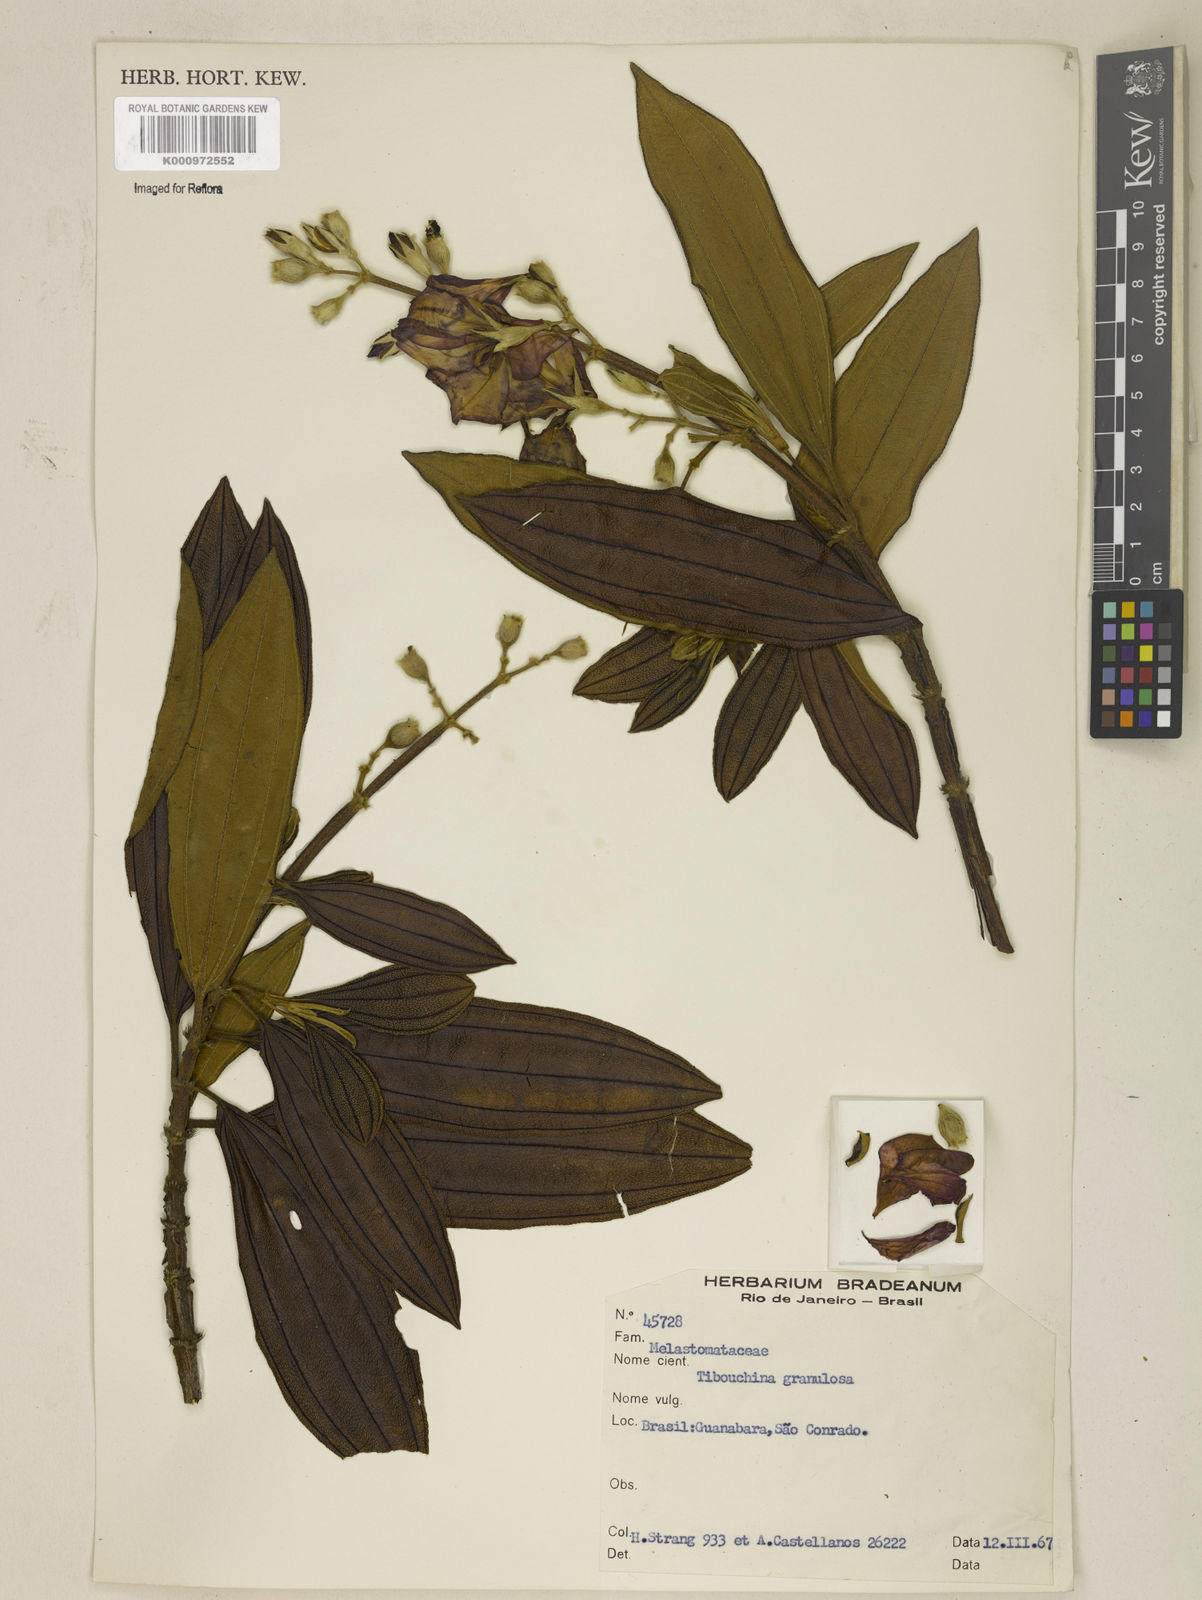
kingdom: Plantae
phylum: Tracheophyta
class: Magnoliopsida
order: Myrtales
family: Melastomataceae
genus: Pleroma
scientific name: Pleroma granulosum
